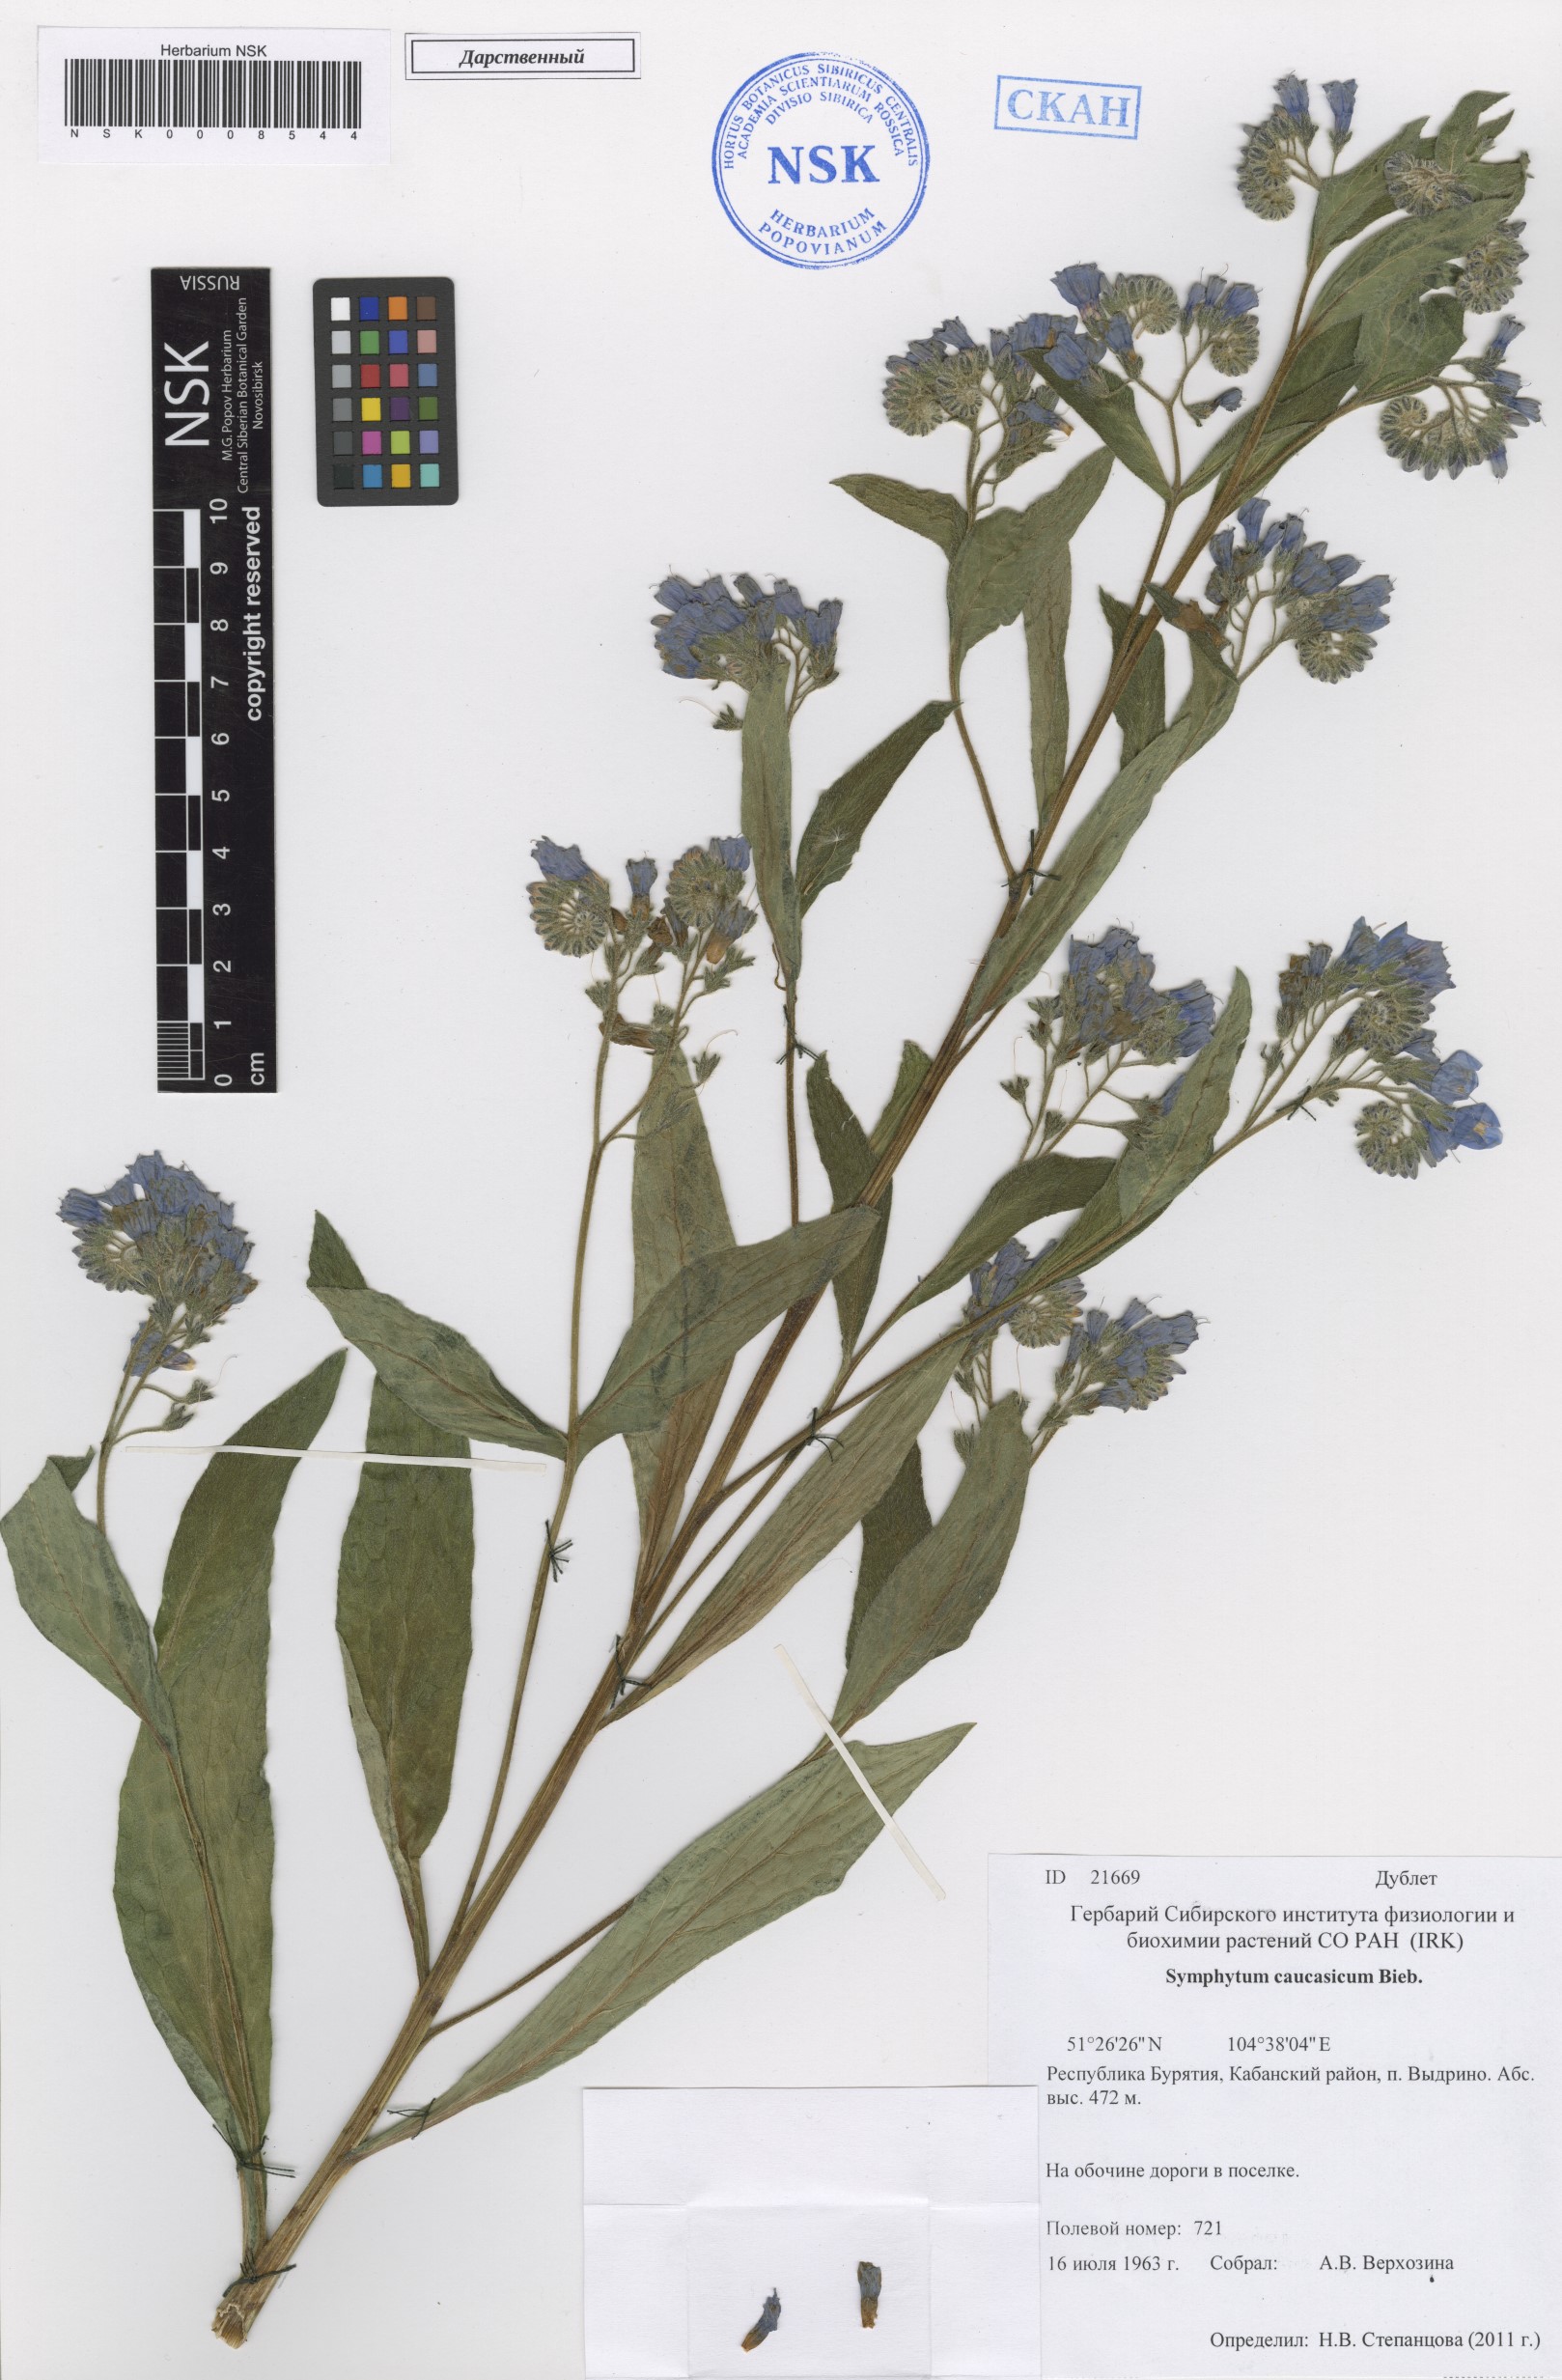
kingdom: Plantae
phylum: Tracheophyta
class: Magnoliopsida
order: Boraginales
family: Boraginaceae
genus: Symphytum
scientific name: Symphytum caucasicum
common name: Caucasian comfrey
